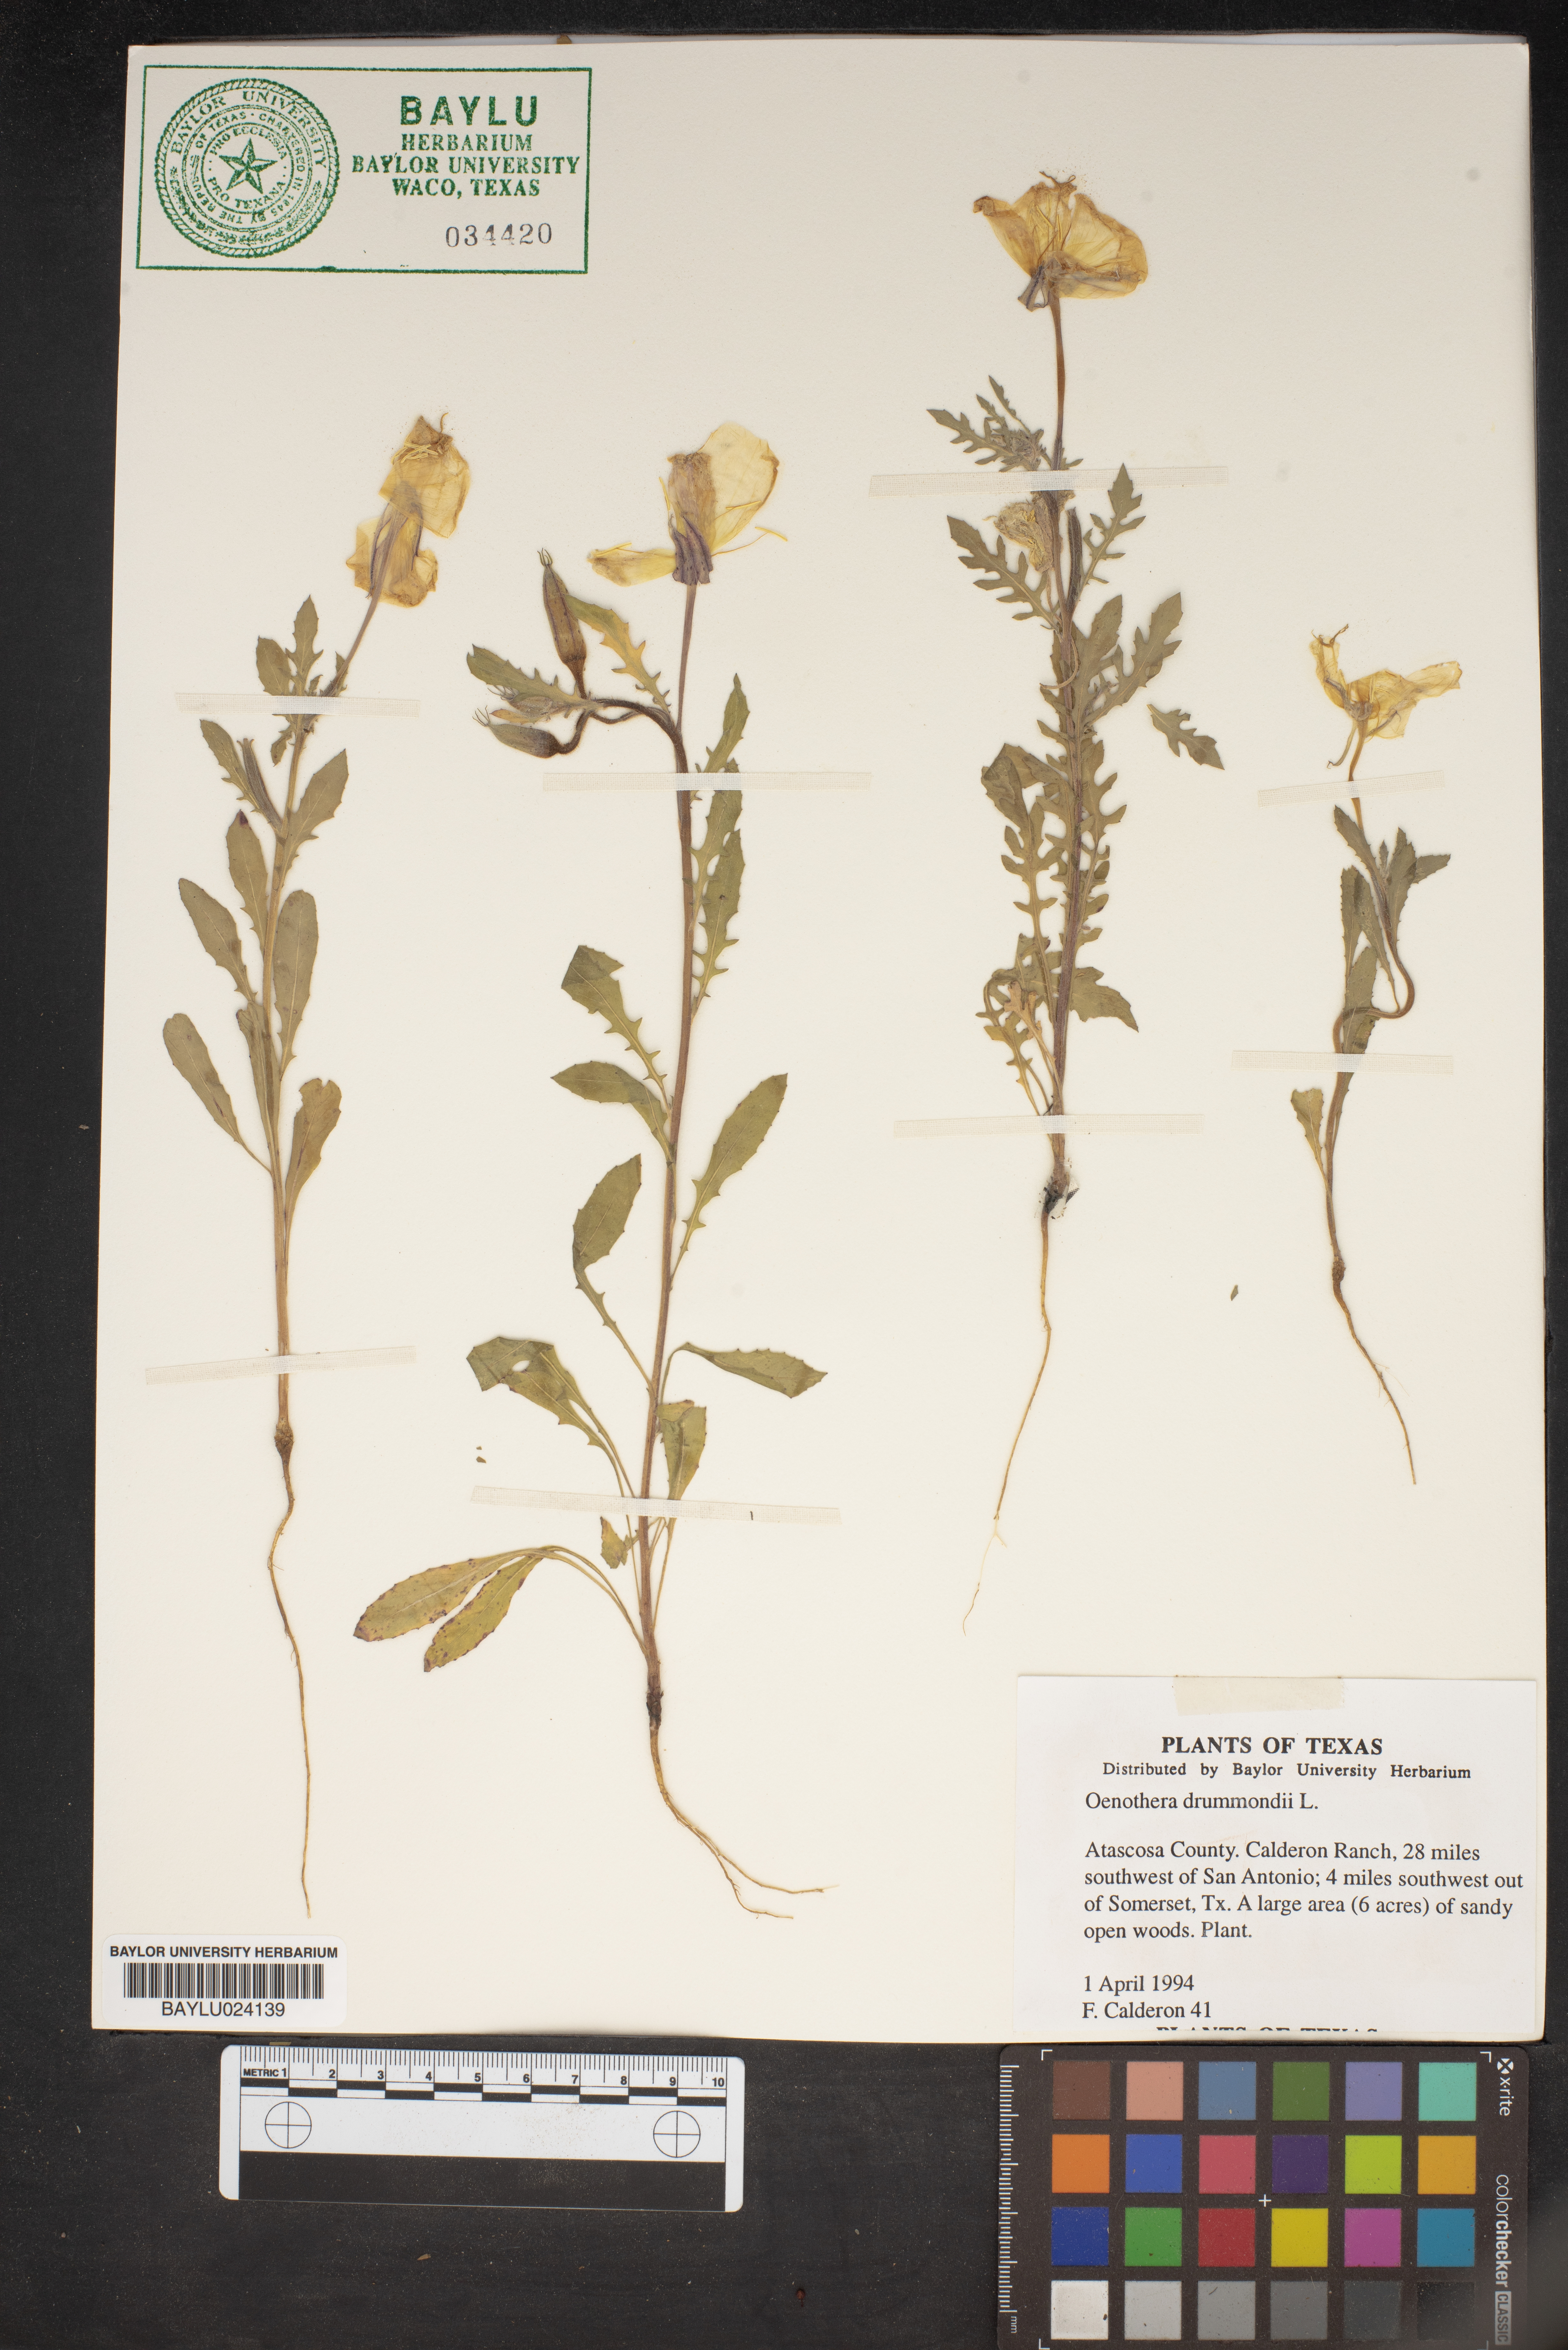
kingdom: Plantae
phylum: Tracheophyta
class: Magnoliopsida
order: Myrtales
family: Onagraceae
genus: Oenothera
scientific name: Oenothera drummondii
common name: Beach evening-primrose
